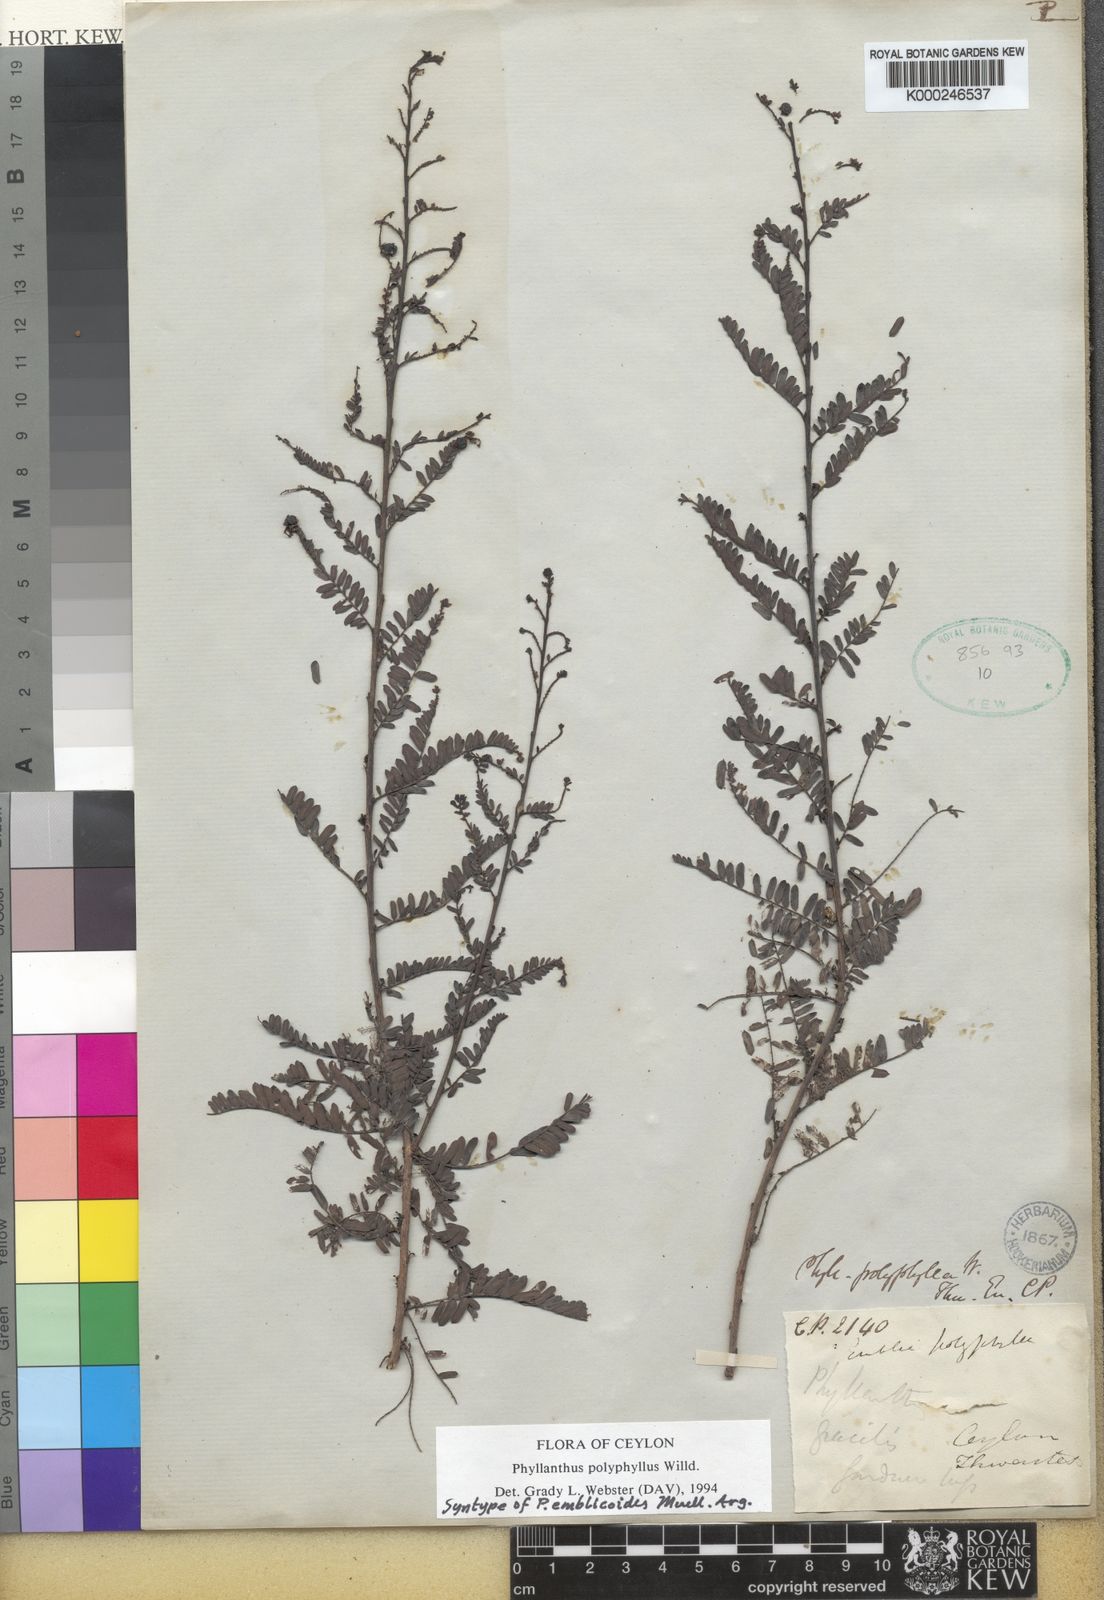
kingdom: Plantae
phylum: Tracheophyta
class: Magnoliopsida
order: Malpighiales
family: Phyllanthaceae
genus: Phyllanthus
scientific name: Phyllanthus racemosus
